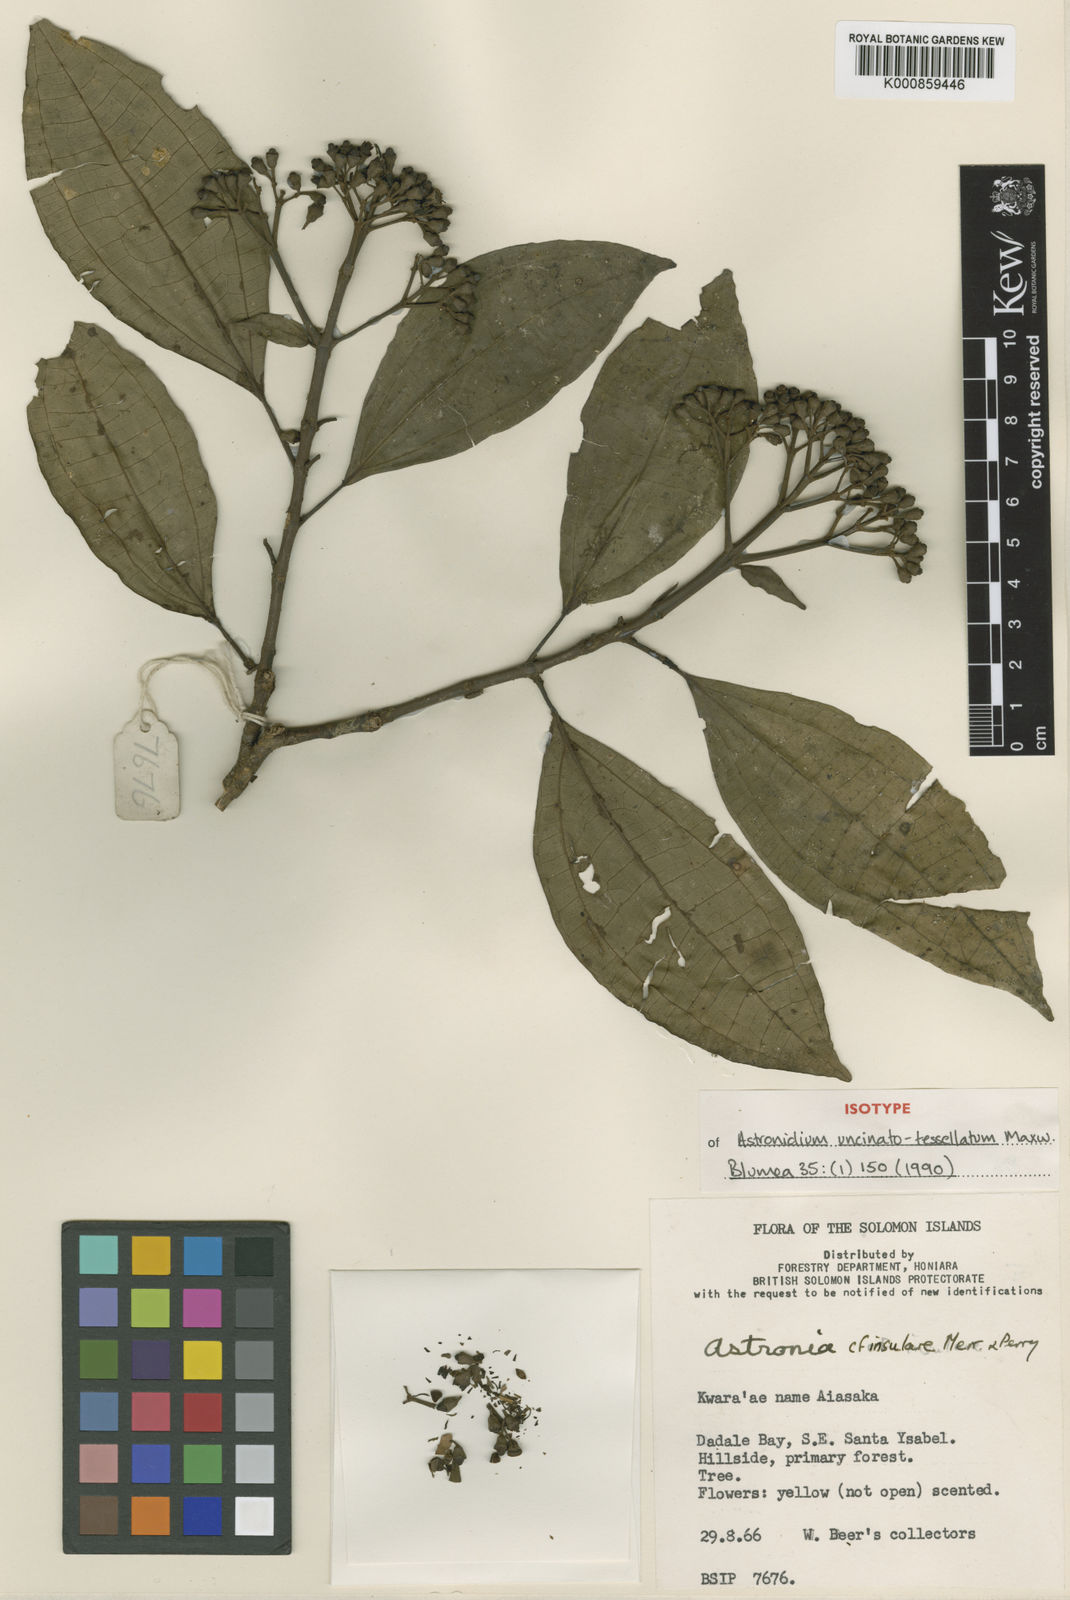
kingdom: Plantae
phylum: Tracheophyta
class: Magnoliopsida
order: Myrtales
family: Melastomataceae
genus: Astronidium
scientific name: Astronidium uncinatotessellatum
